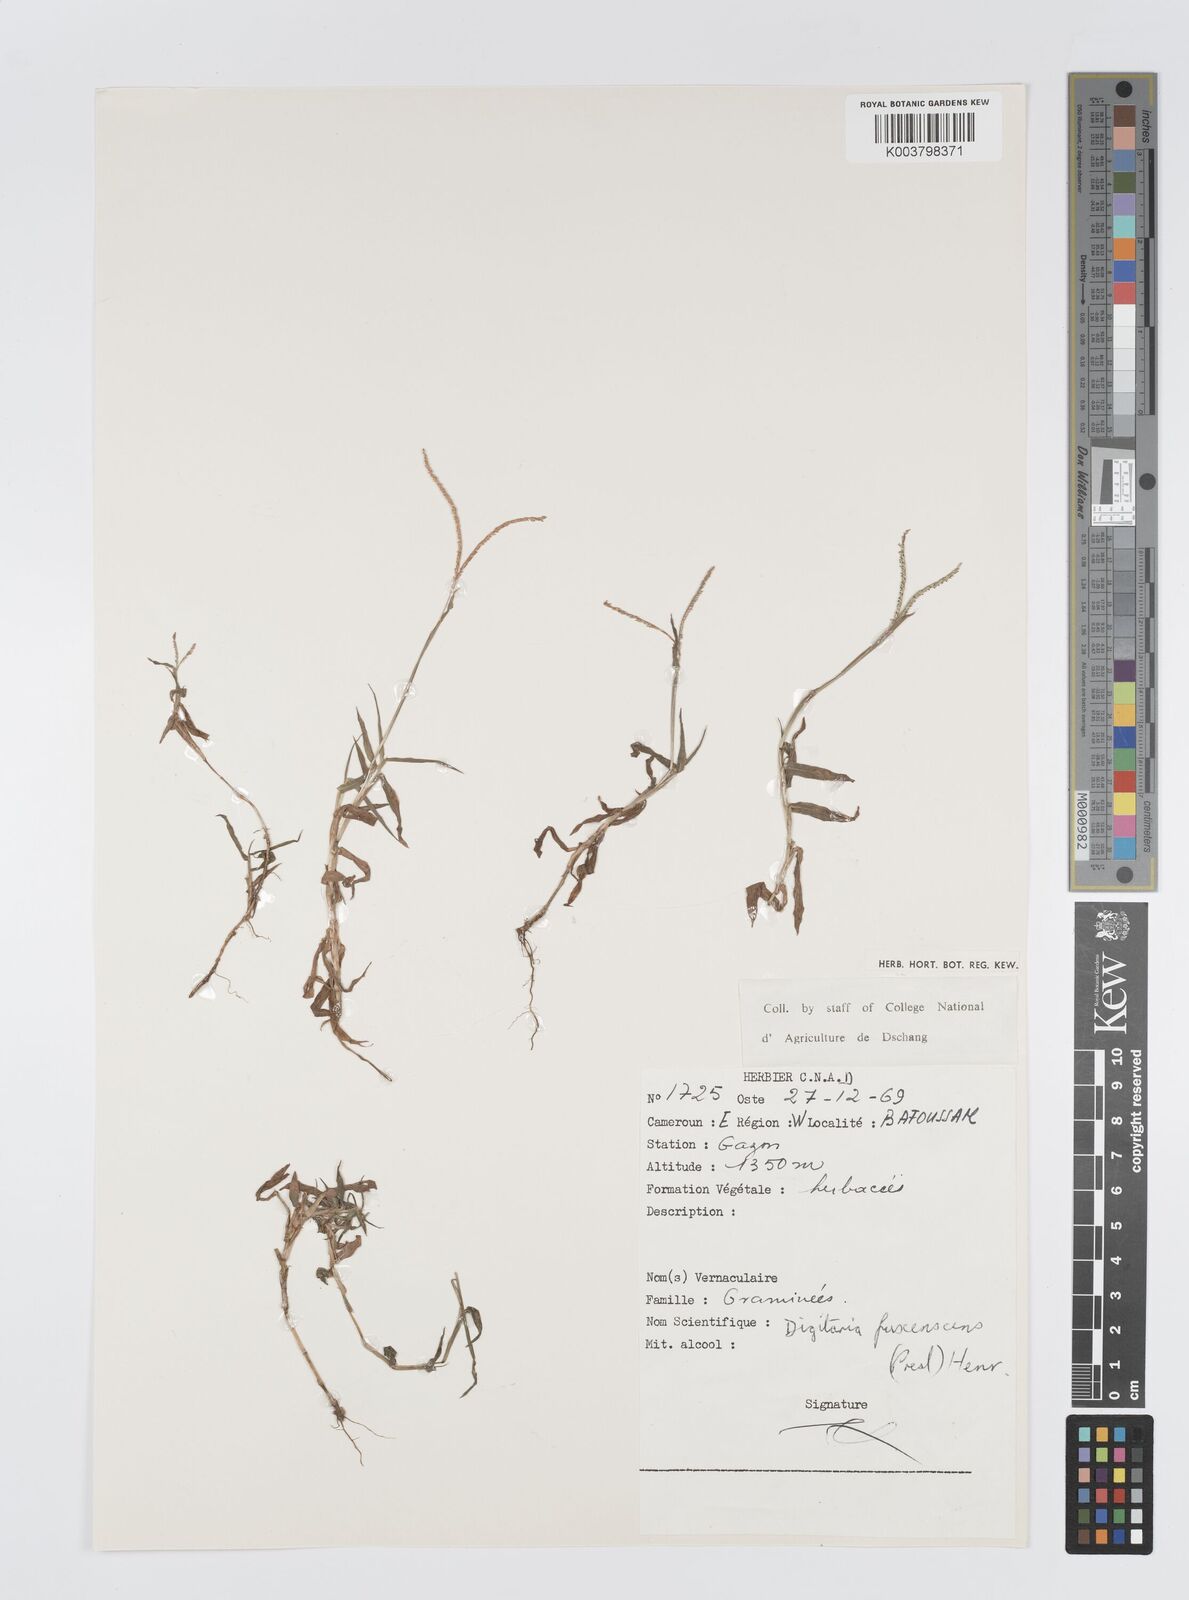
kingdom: Plantae
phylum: Tracheophyta
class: Liliopsida
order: Poales
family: Poaceae
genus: Digitaria
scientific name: Digitaria fuscescens
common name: Yellow crabgrass
